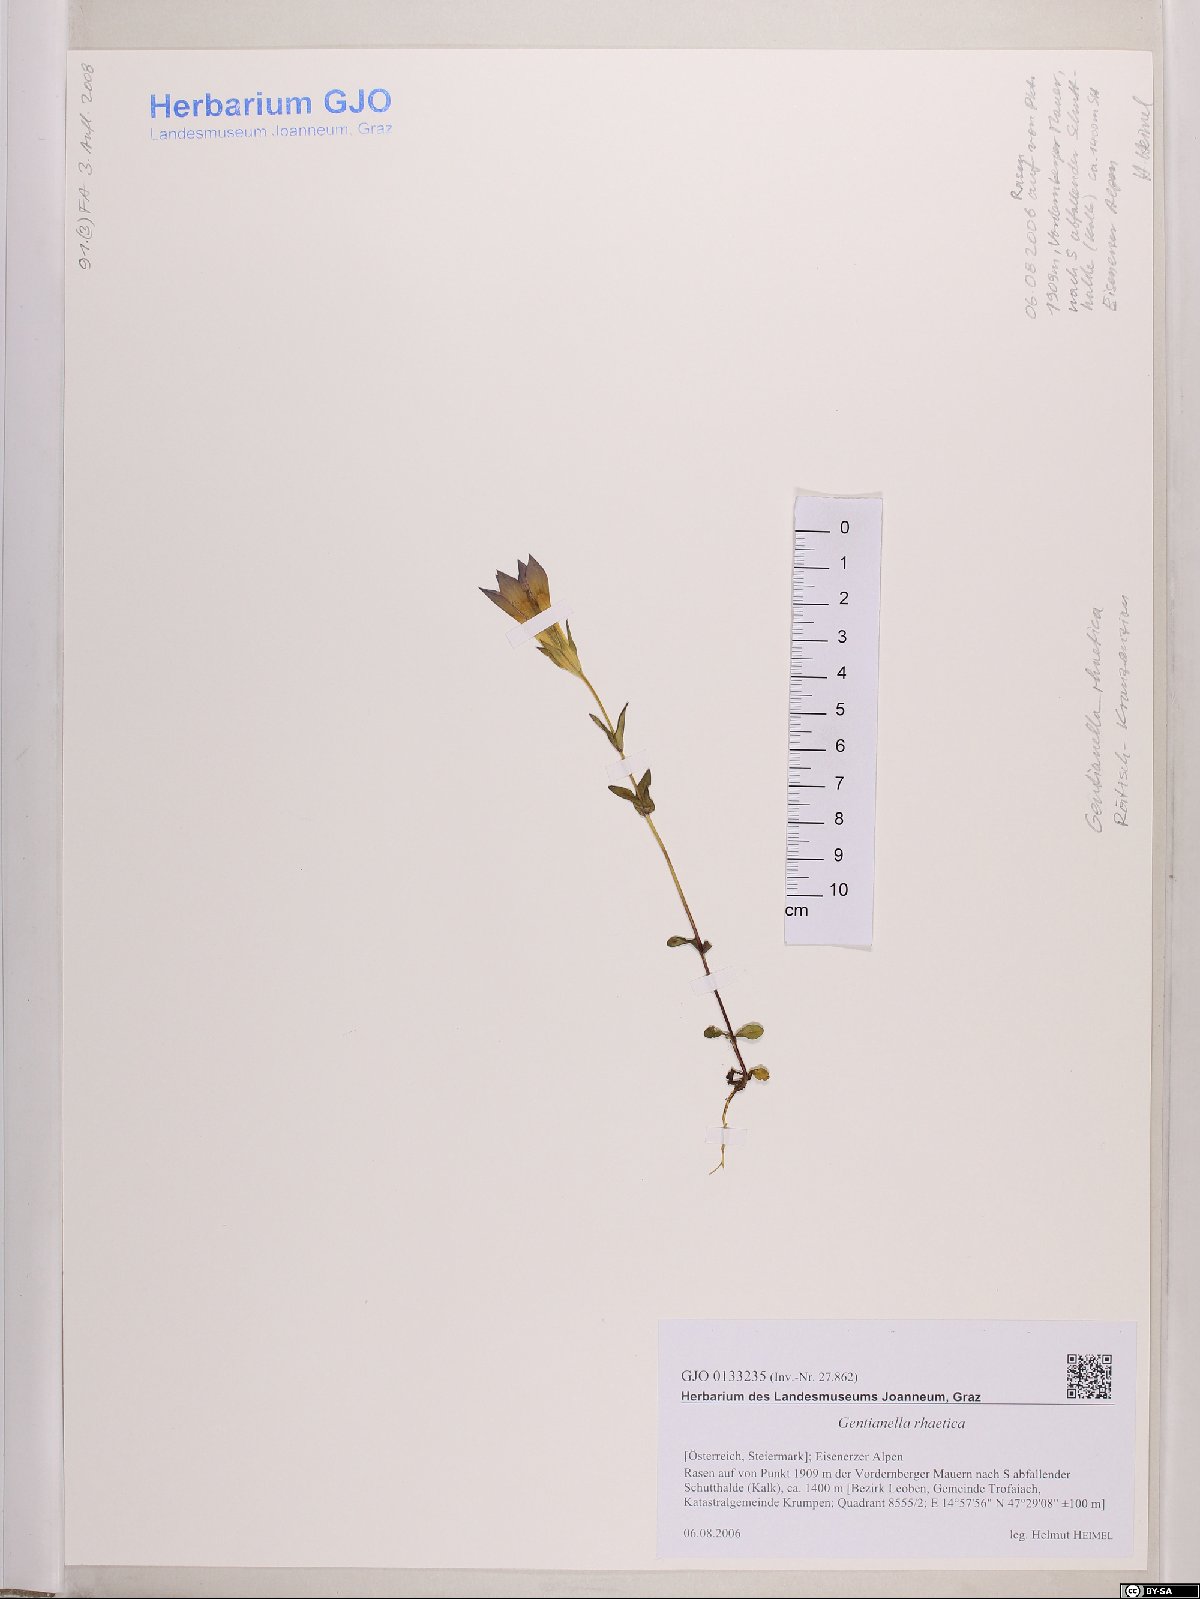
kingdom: Plantae
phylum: Tracheophyta
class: Magnoliopsida
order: Gentianales
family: Gentianaceae
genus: Gentianella
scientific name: Gentianella rhaetica
